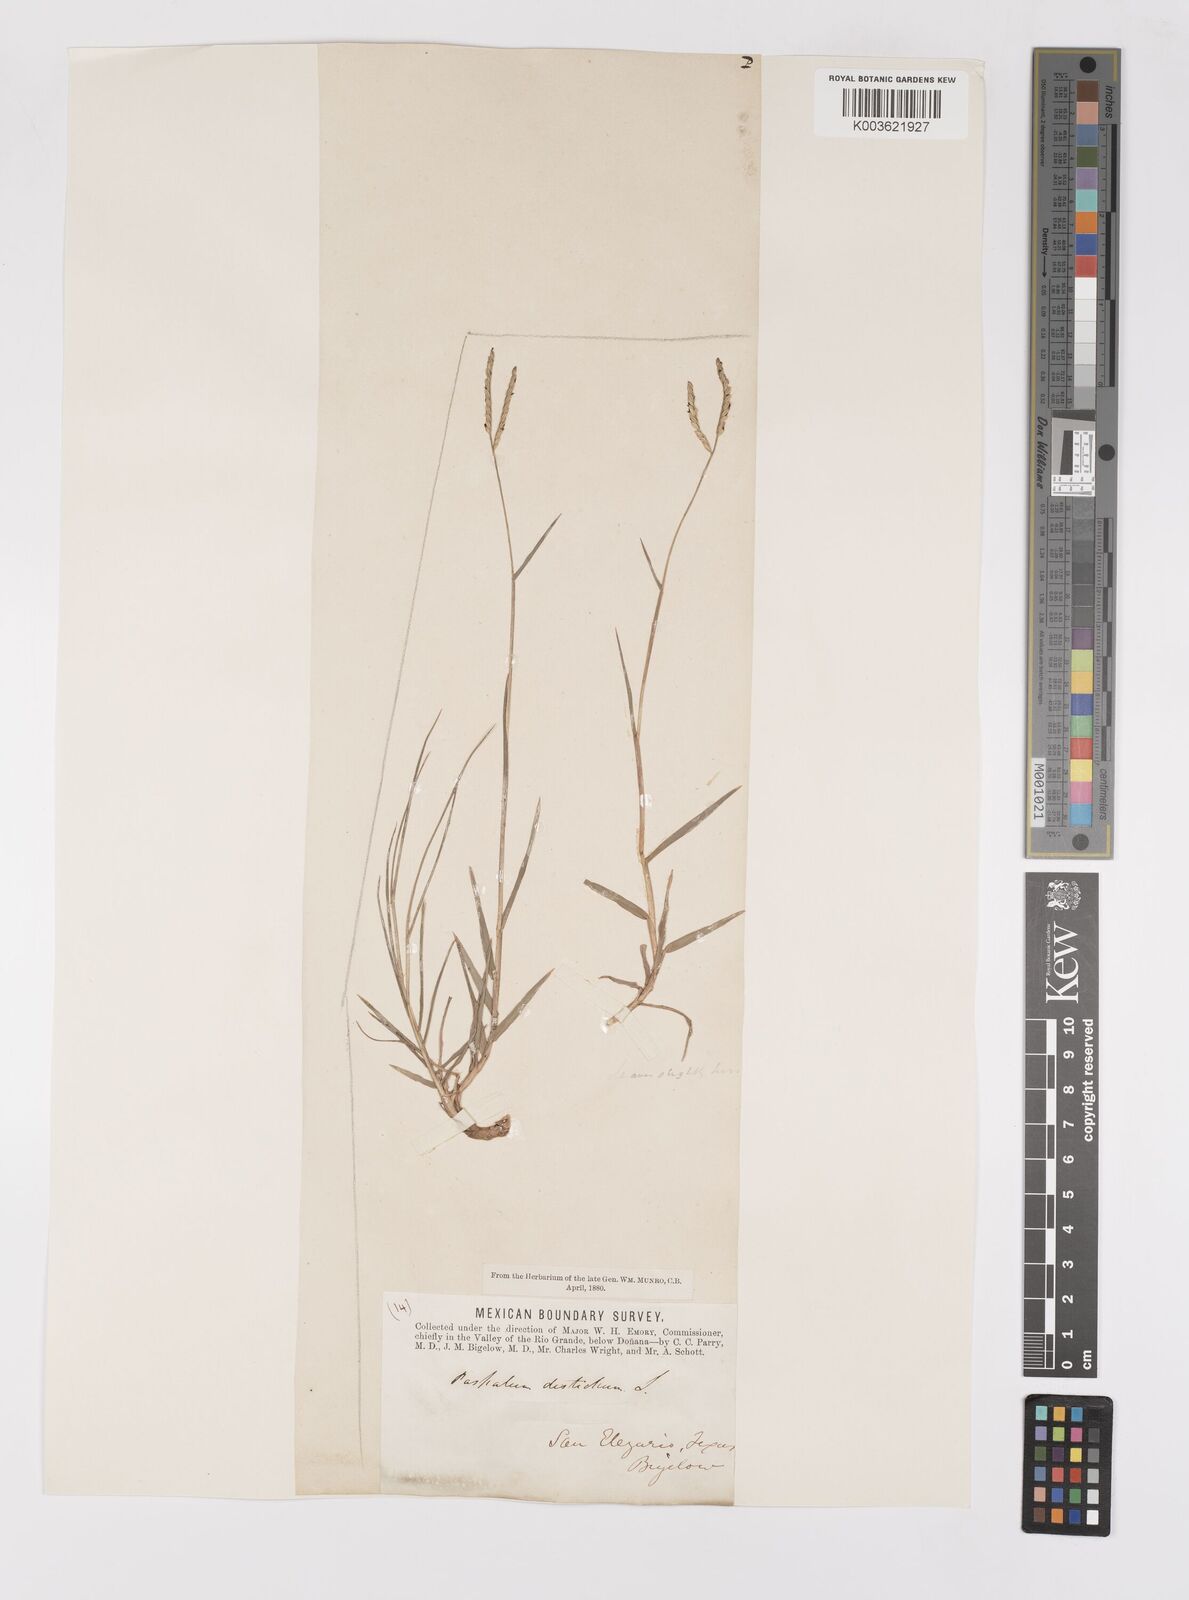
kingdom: Plantae
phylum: Tracheophyta
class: Liliopsida
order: Poales
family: Poaceae
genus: Paspalum
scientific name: Paspalum distichum
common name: Knotgrass
